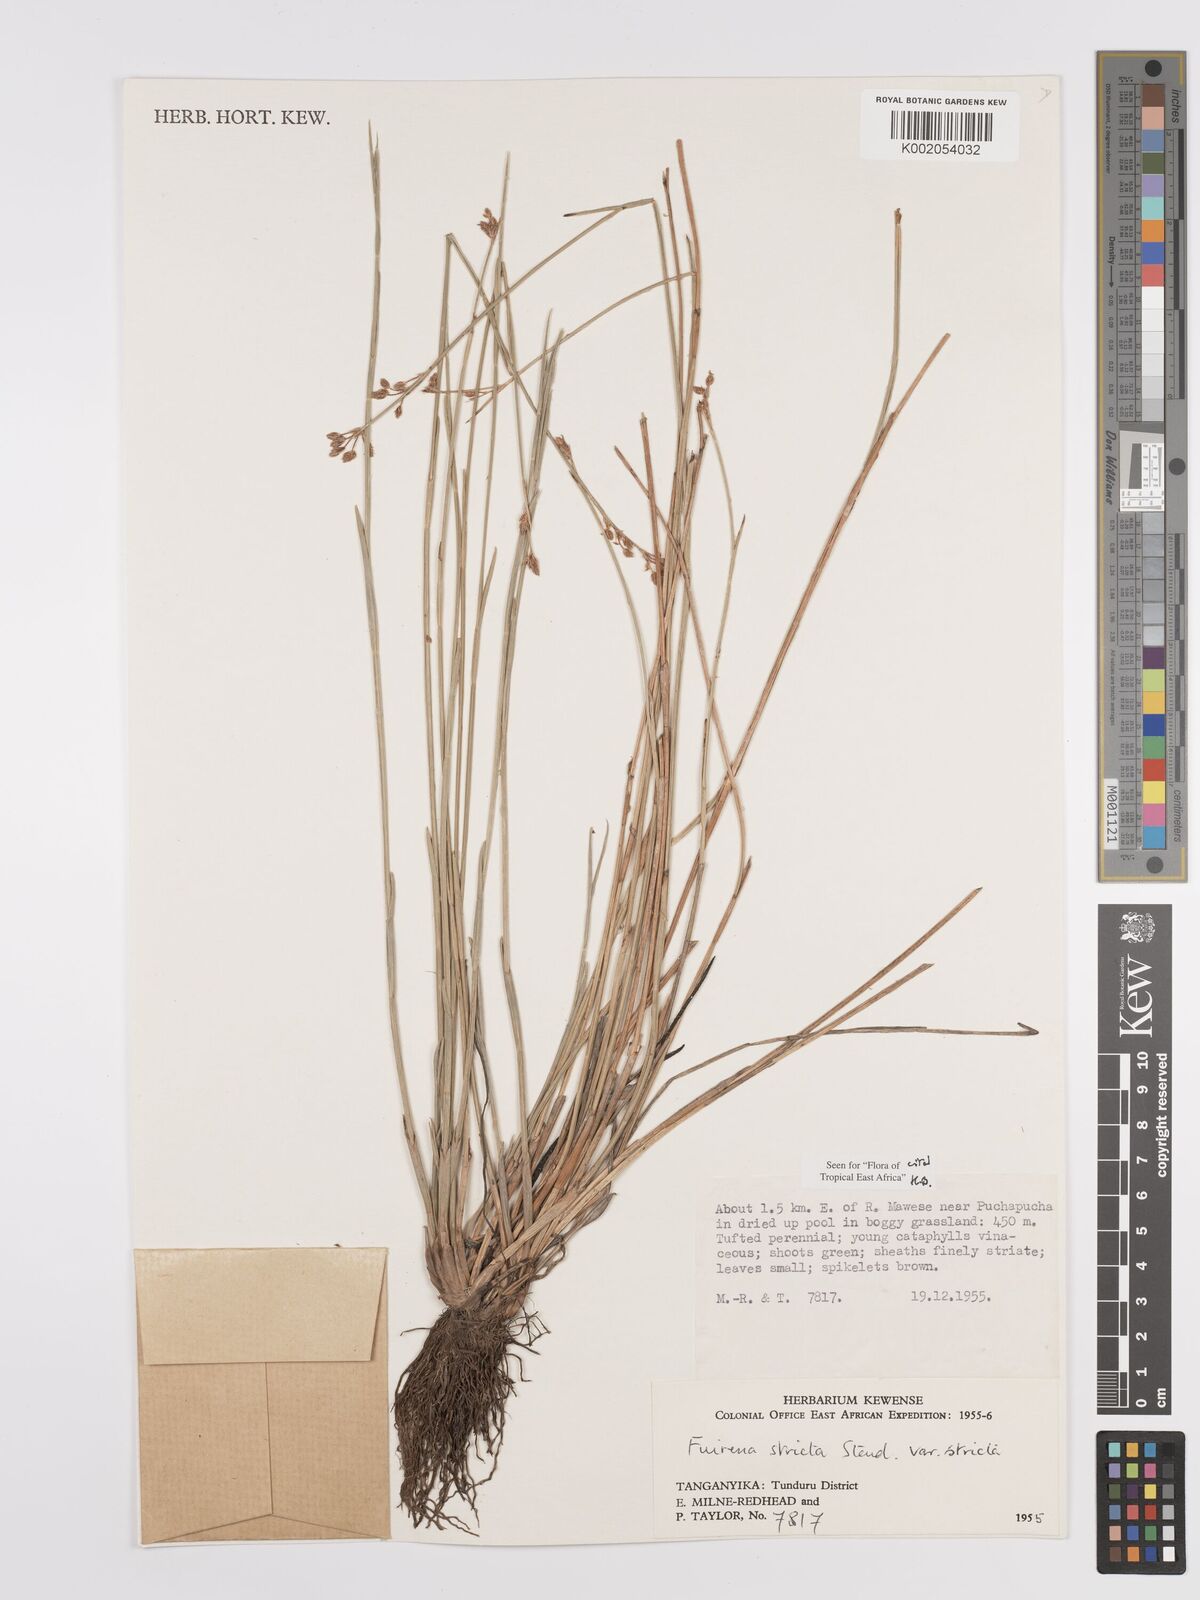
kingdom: Plantae
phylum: Tracheophyta
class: Liliopsida
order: Poales
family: Cyperaceae
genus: Fuirena
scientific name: Fuirena stricta
